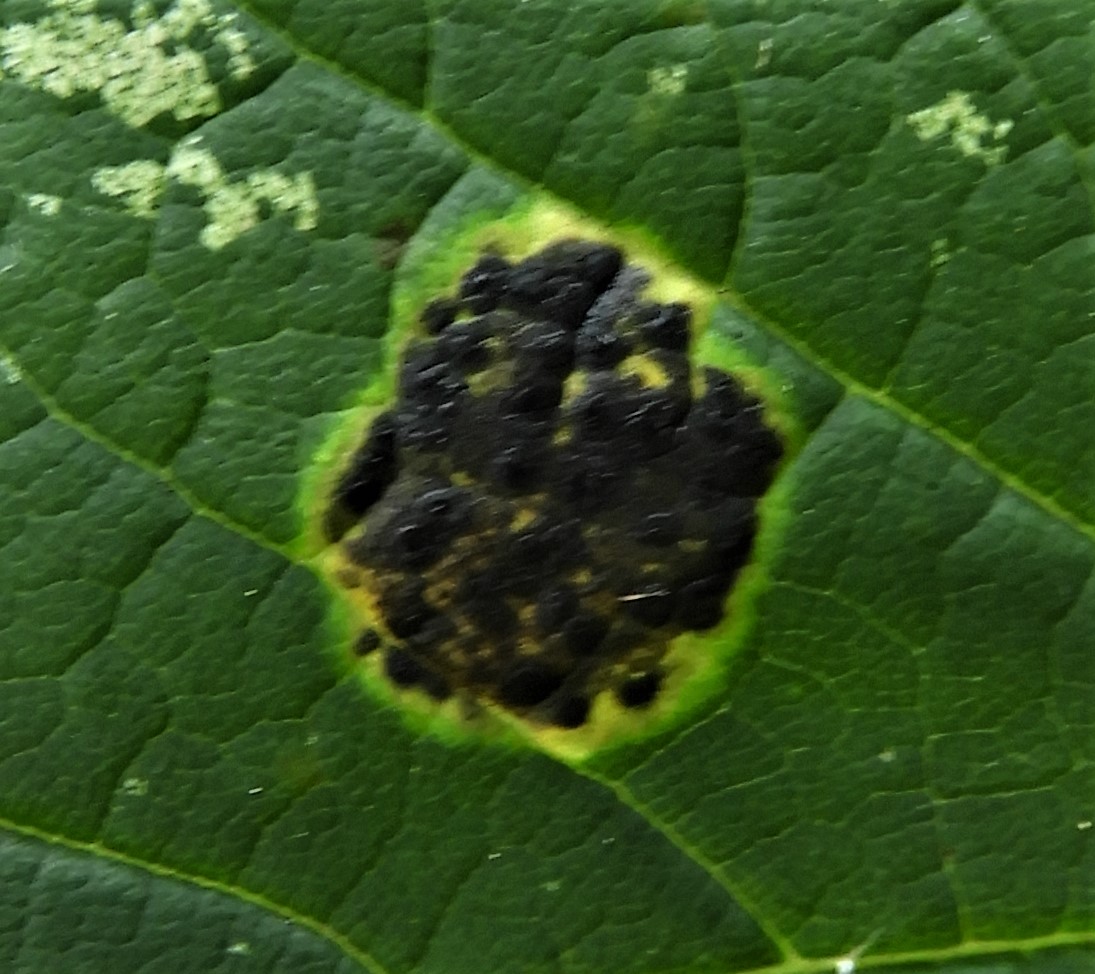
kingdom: Fungi
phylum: Ascomycota
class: Leotiomycetes
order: Rhytismatales
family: Rhytismataceae
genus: Rhytisma
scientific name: Rhytisma acerinum
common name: ahorn-rynkeplet
